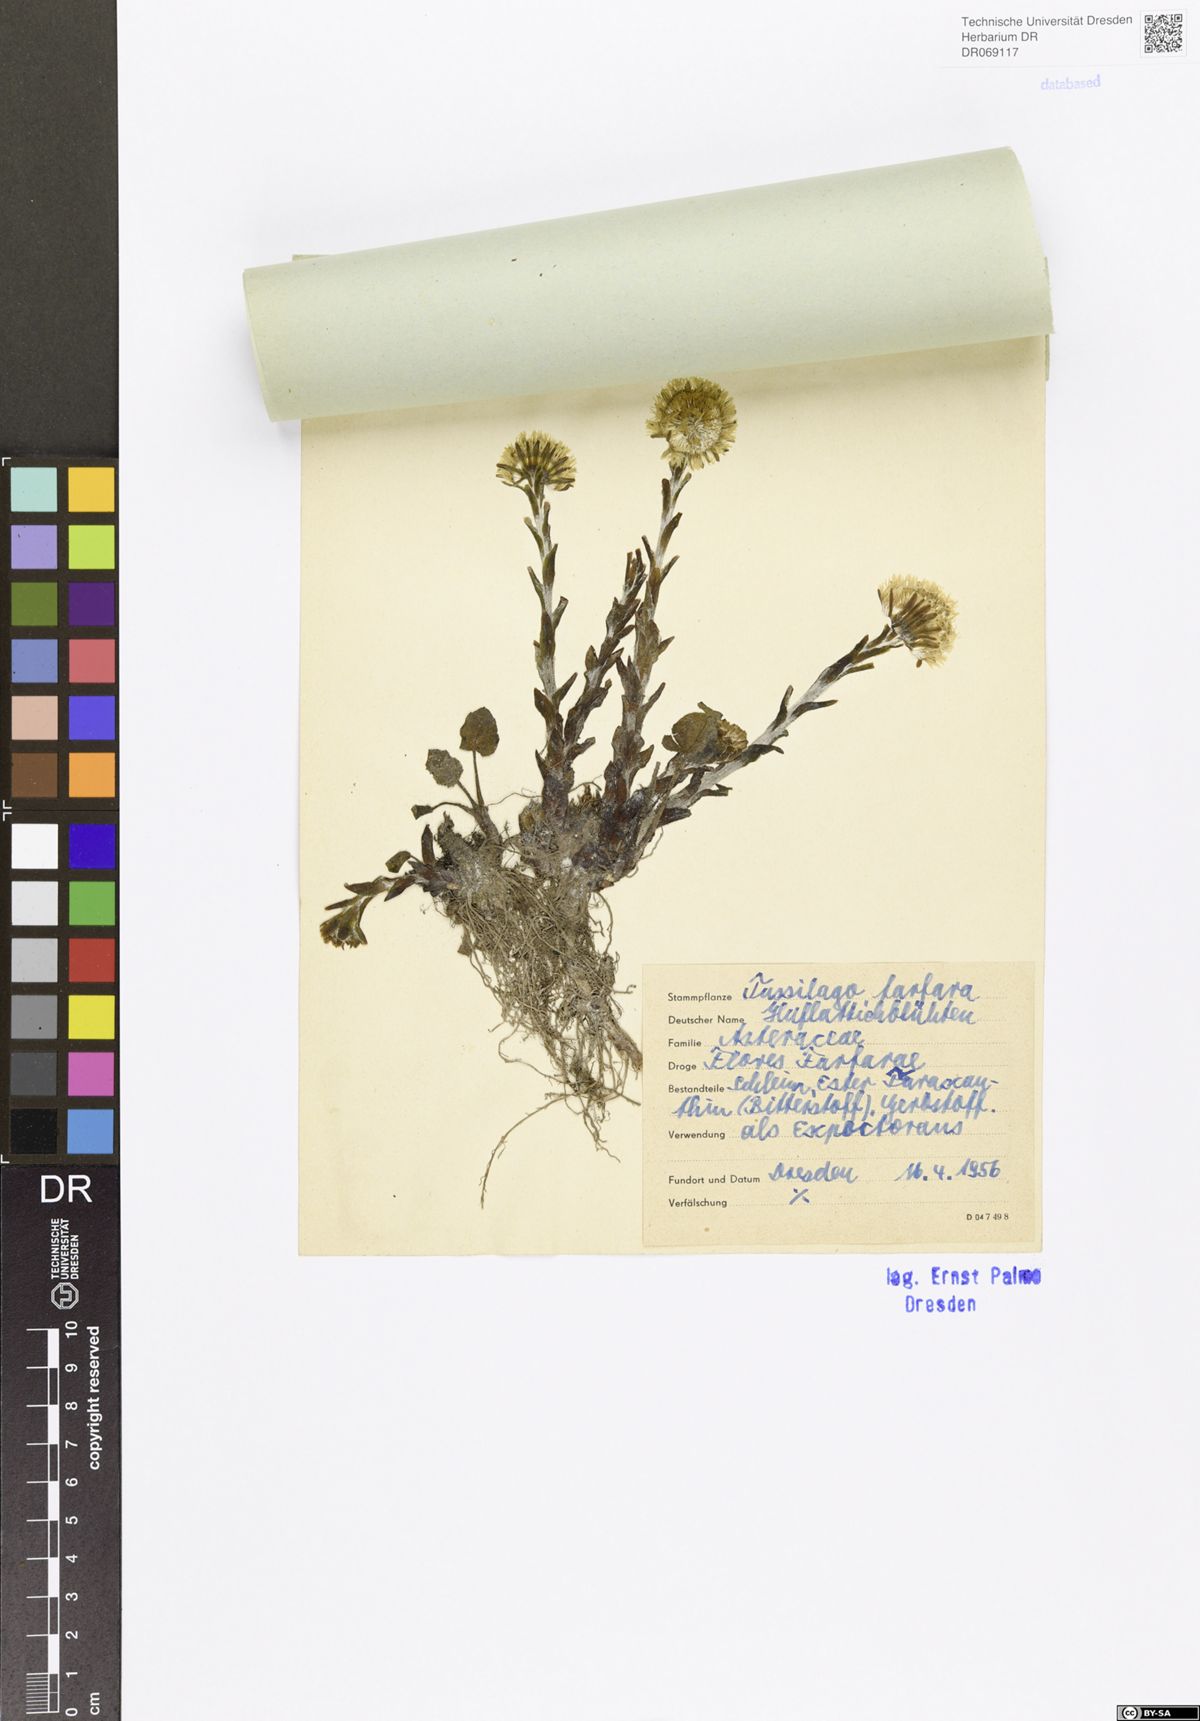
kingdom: Plantae
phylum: Tracheophyta
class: Magnoliopsida
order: Asterales
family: Asteraceae
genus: Tussilago
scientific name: Tussilago farfara
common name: Coltsfoot
